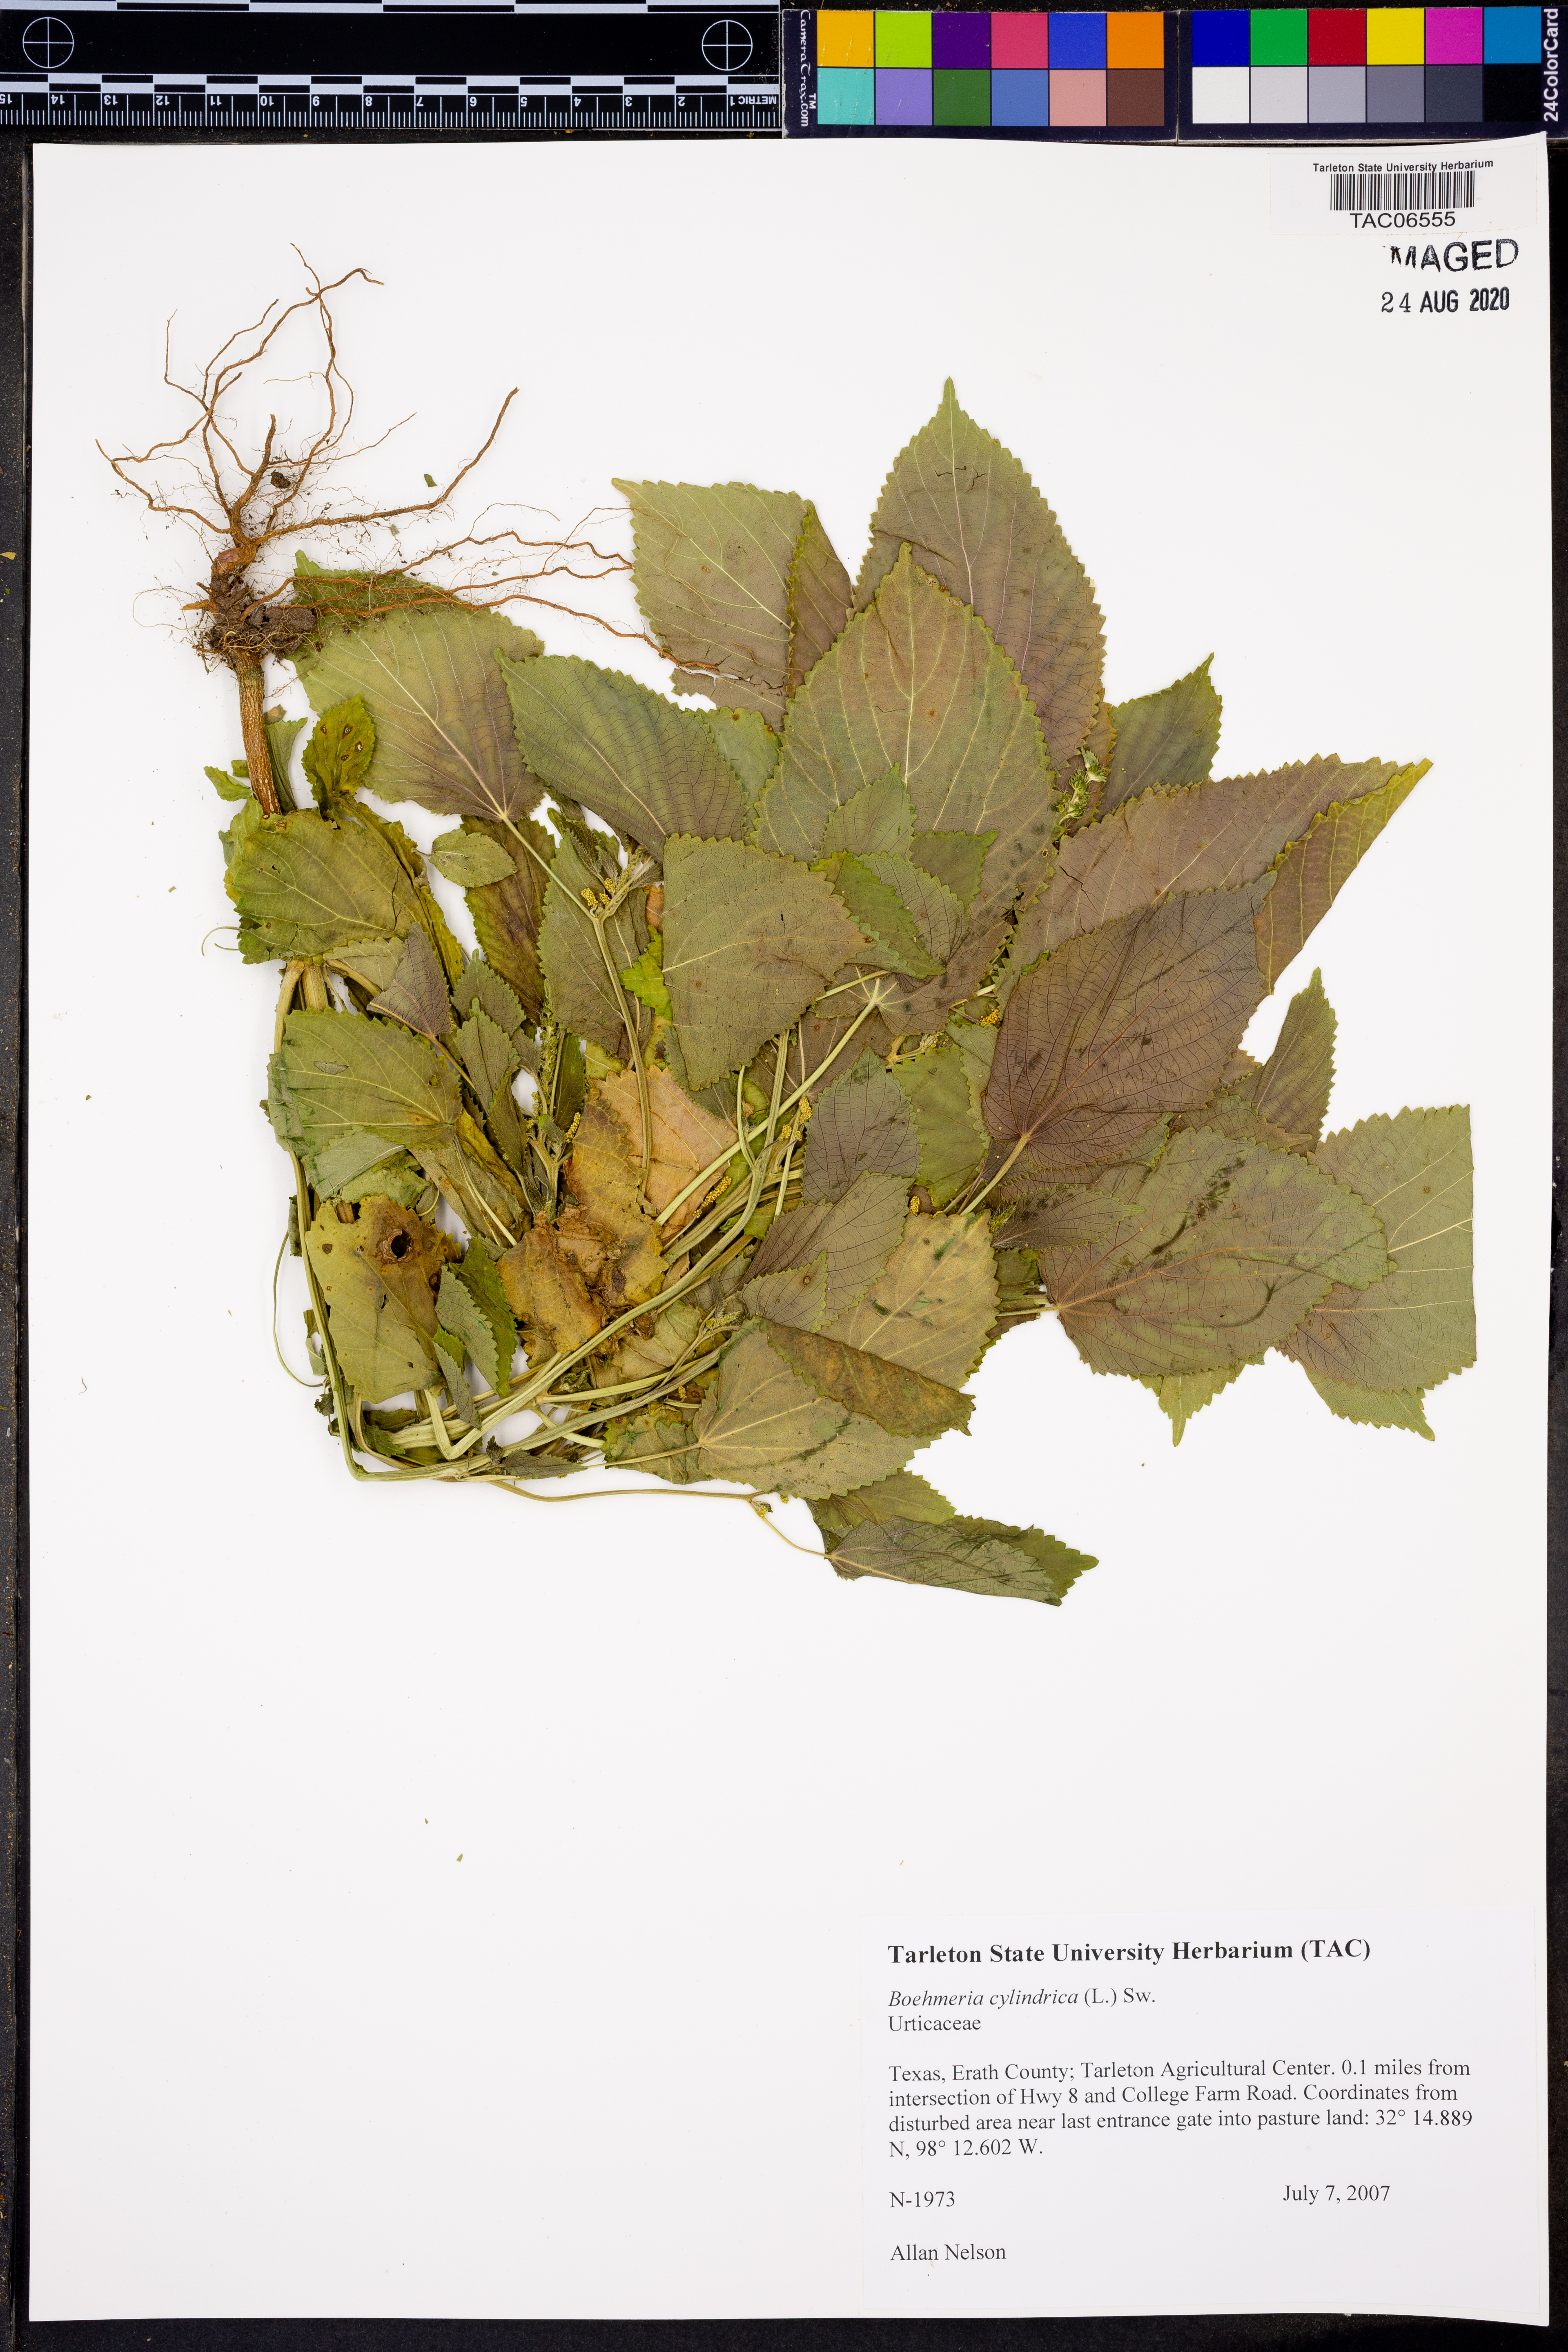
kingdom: Plantae
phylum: Tracheophyta
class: Magnoliopsida
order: Rosales
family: Urticaceae
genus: Boehmeria
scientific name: Boehmeria cylindrica
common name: Bog-hemp
